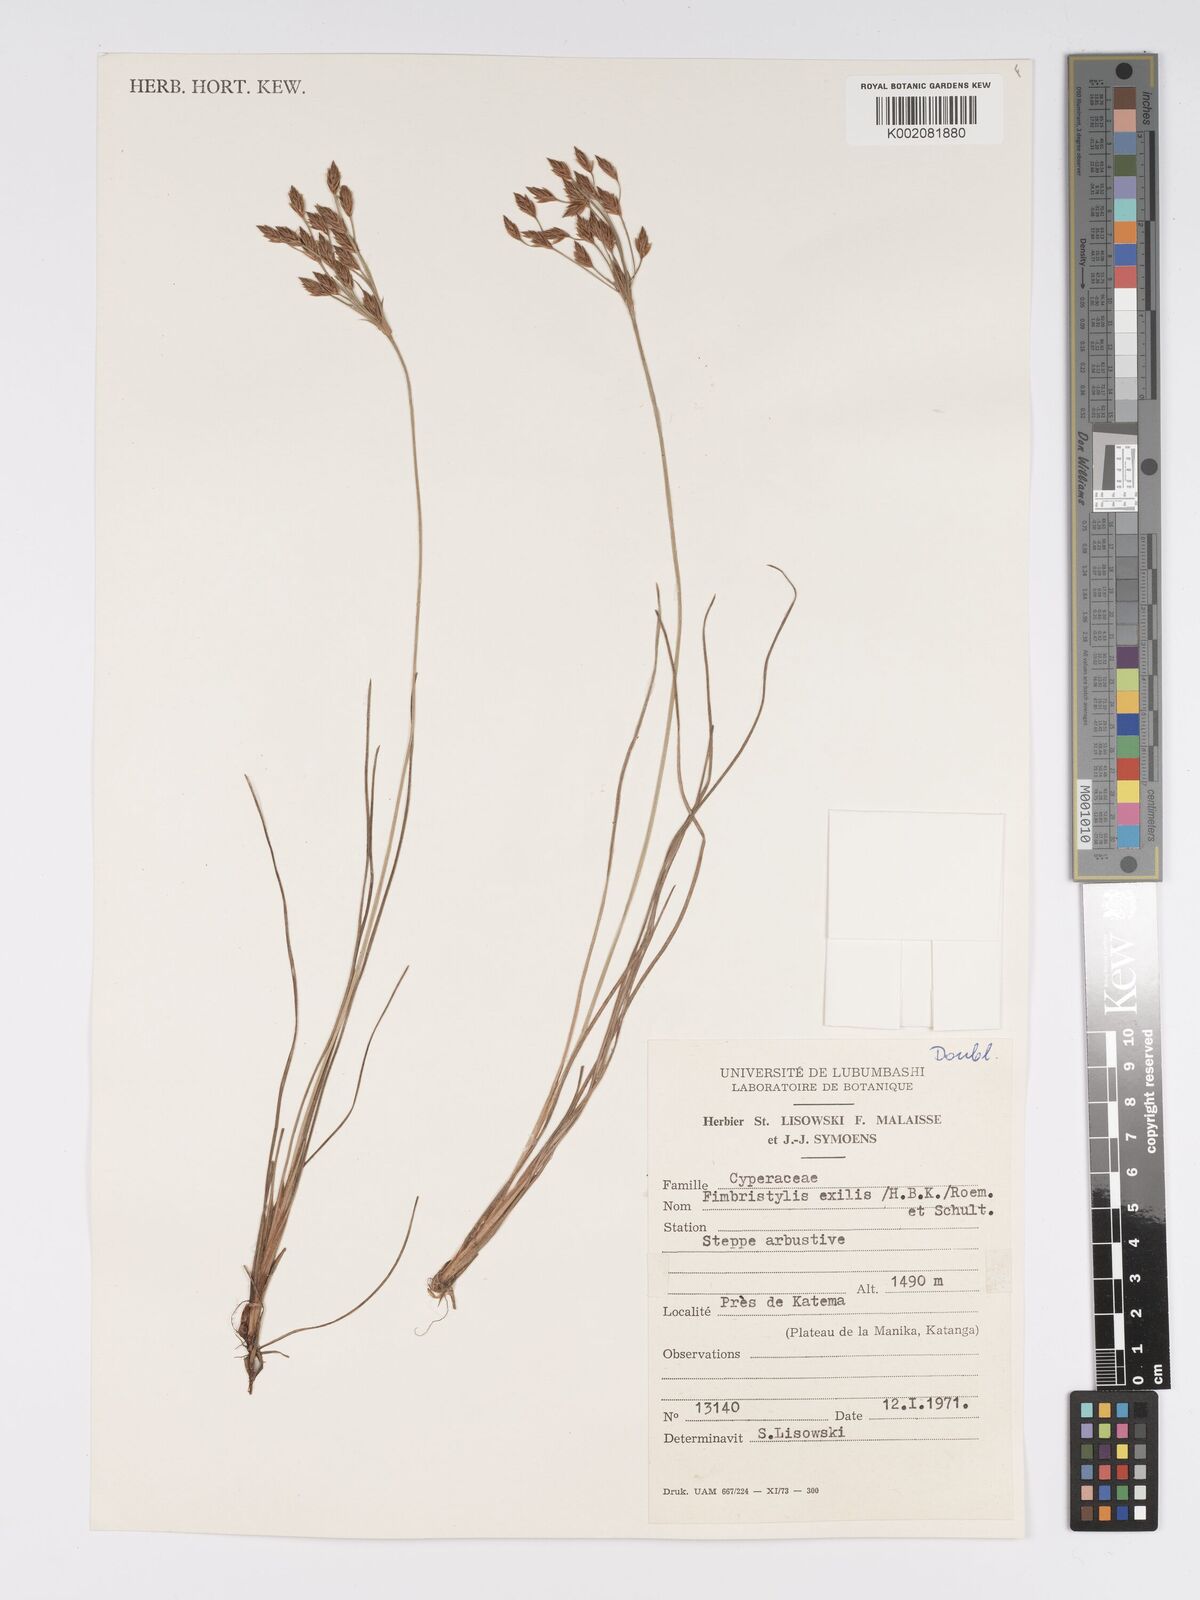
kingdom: Plantae
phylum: Tracheophyta
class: Liliopsida
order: Poales
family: Cyperaceae
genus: Bulbostylis
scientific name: Bulbostylis hispidula
